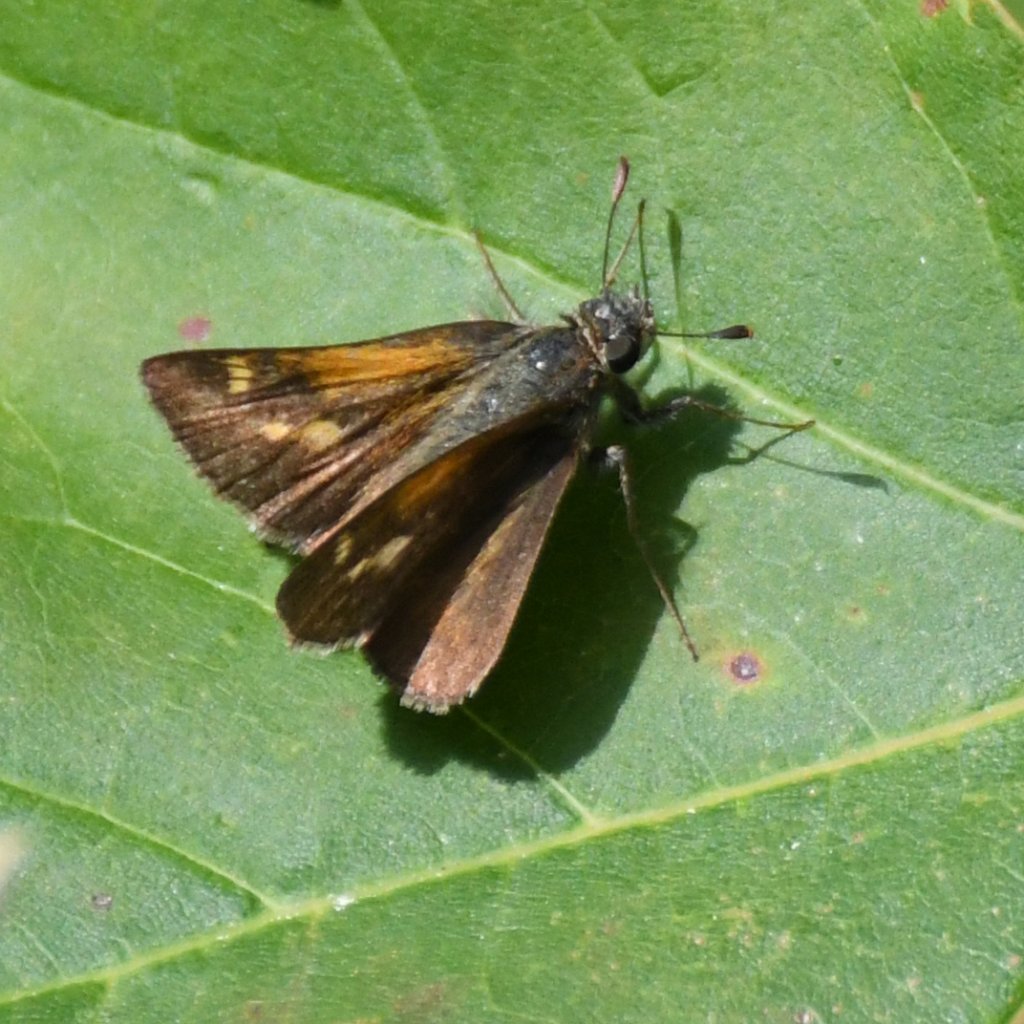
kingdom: Animalia
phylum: Arthropoda
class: Insecta
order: Lepidoptera
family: Hesperiidae
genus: Polites
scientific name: Polites themistocles
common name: Tawny-edged Skipper
